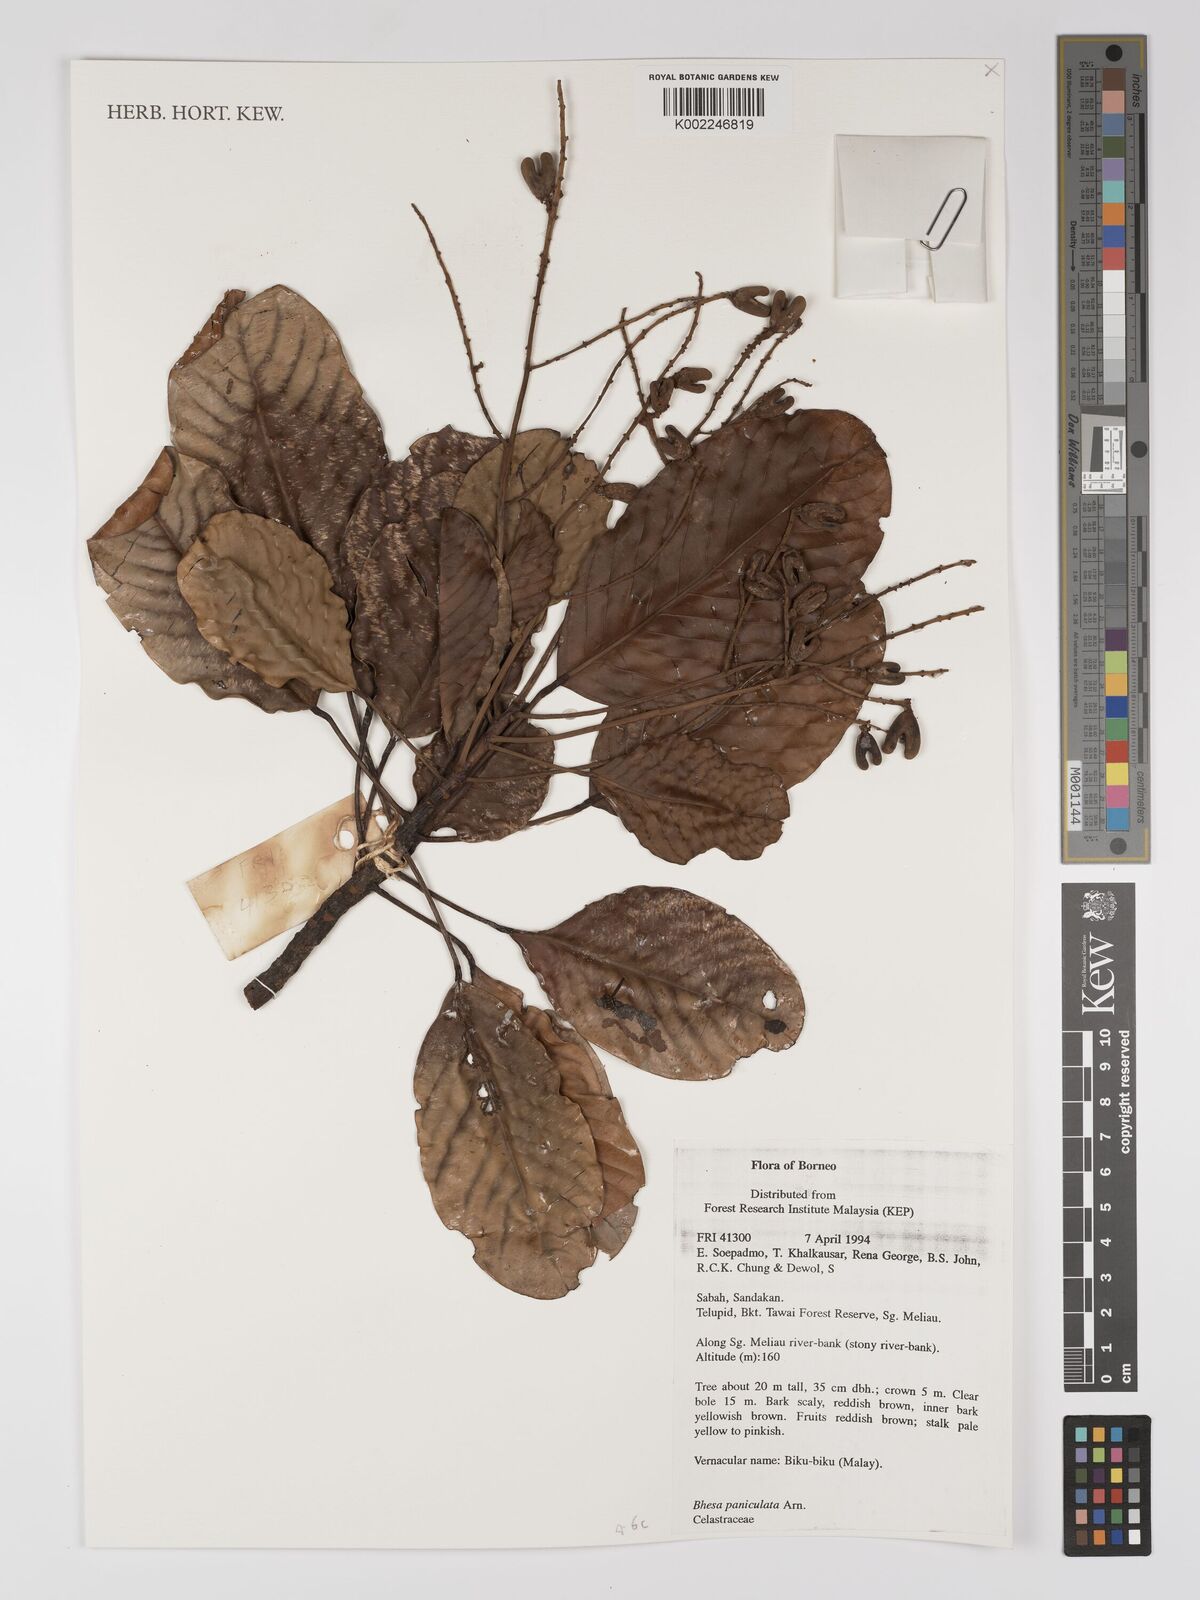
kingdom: Plantae
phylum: Tracheophyta
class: Magnoliopsida
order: Malpighiales
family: Centroplacaceae
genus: Bhesa
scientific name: Bhesa paniculata
